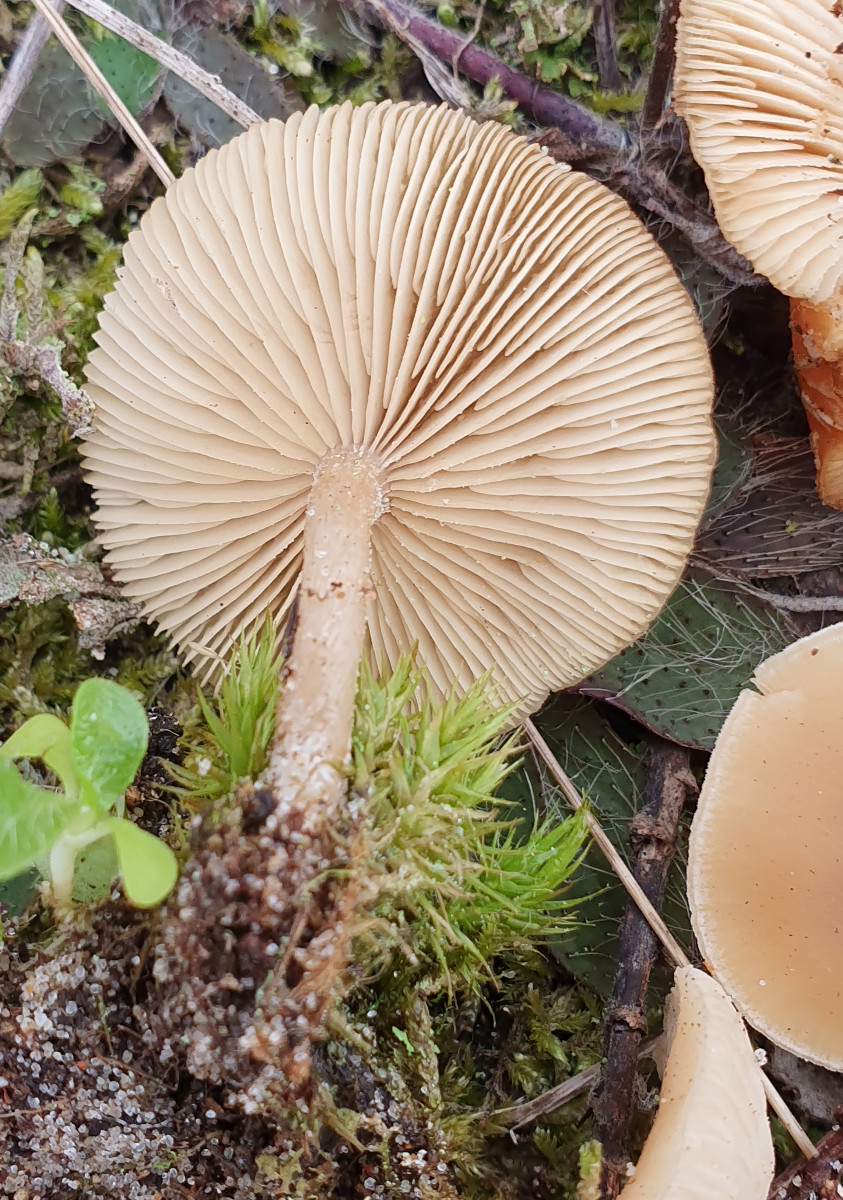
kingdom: Fungi
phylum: Basidiomycota
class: Agaricomycetes
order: Agaricales
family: Tricholomataceae
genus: Clitocybe
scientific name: Clitocybe fragrans
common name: vellugtende tragthat
